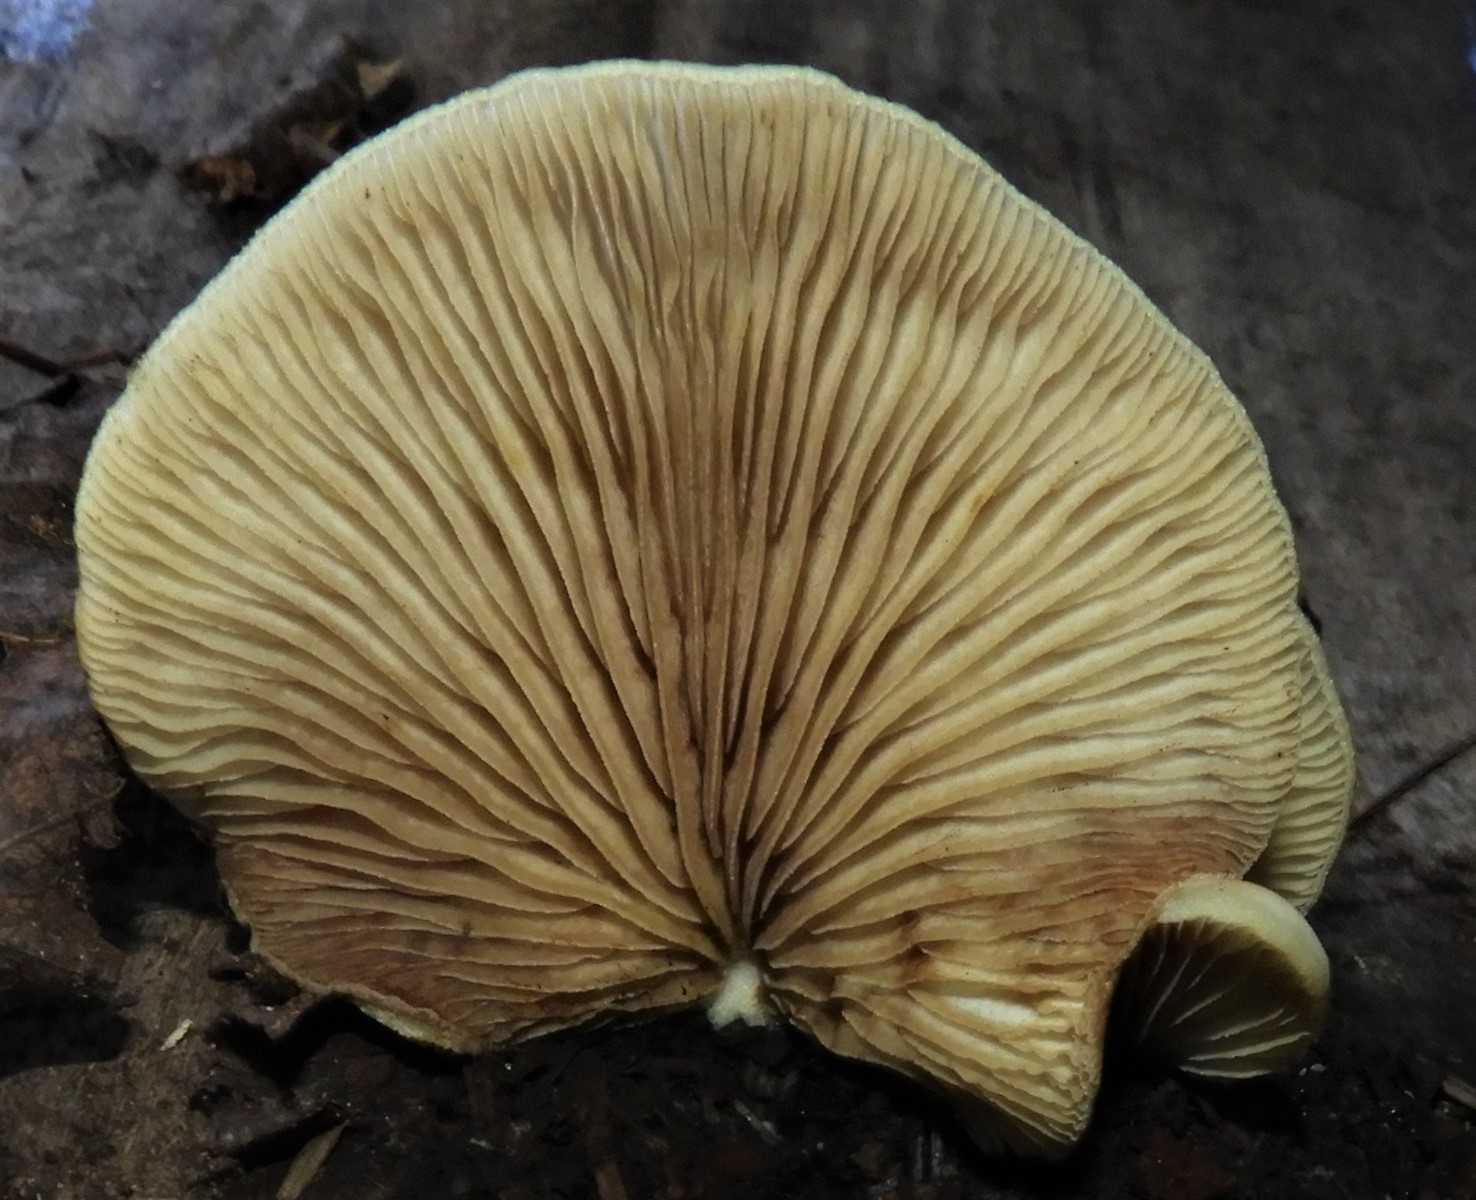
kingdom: Fungi
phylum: Basidiomycota
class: Agaricomycetes
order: Agaricales
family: Crepidotaceae
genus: Crepidotus
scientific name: Crepidotus mollis
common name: blød muslingesvamp
